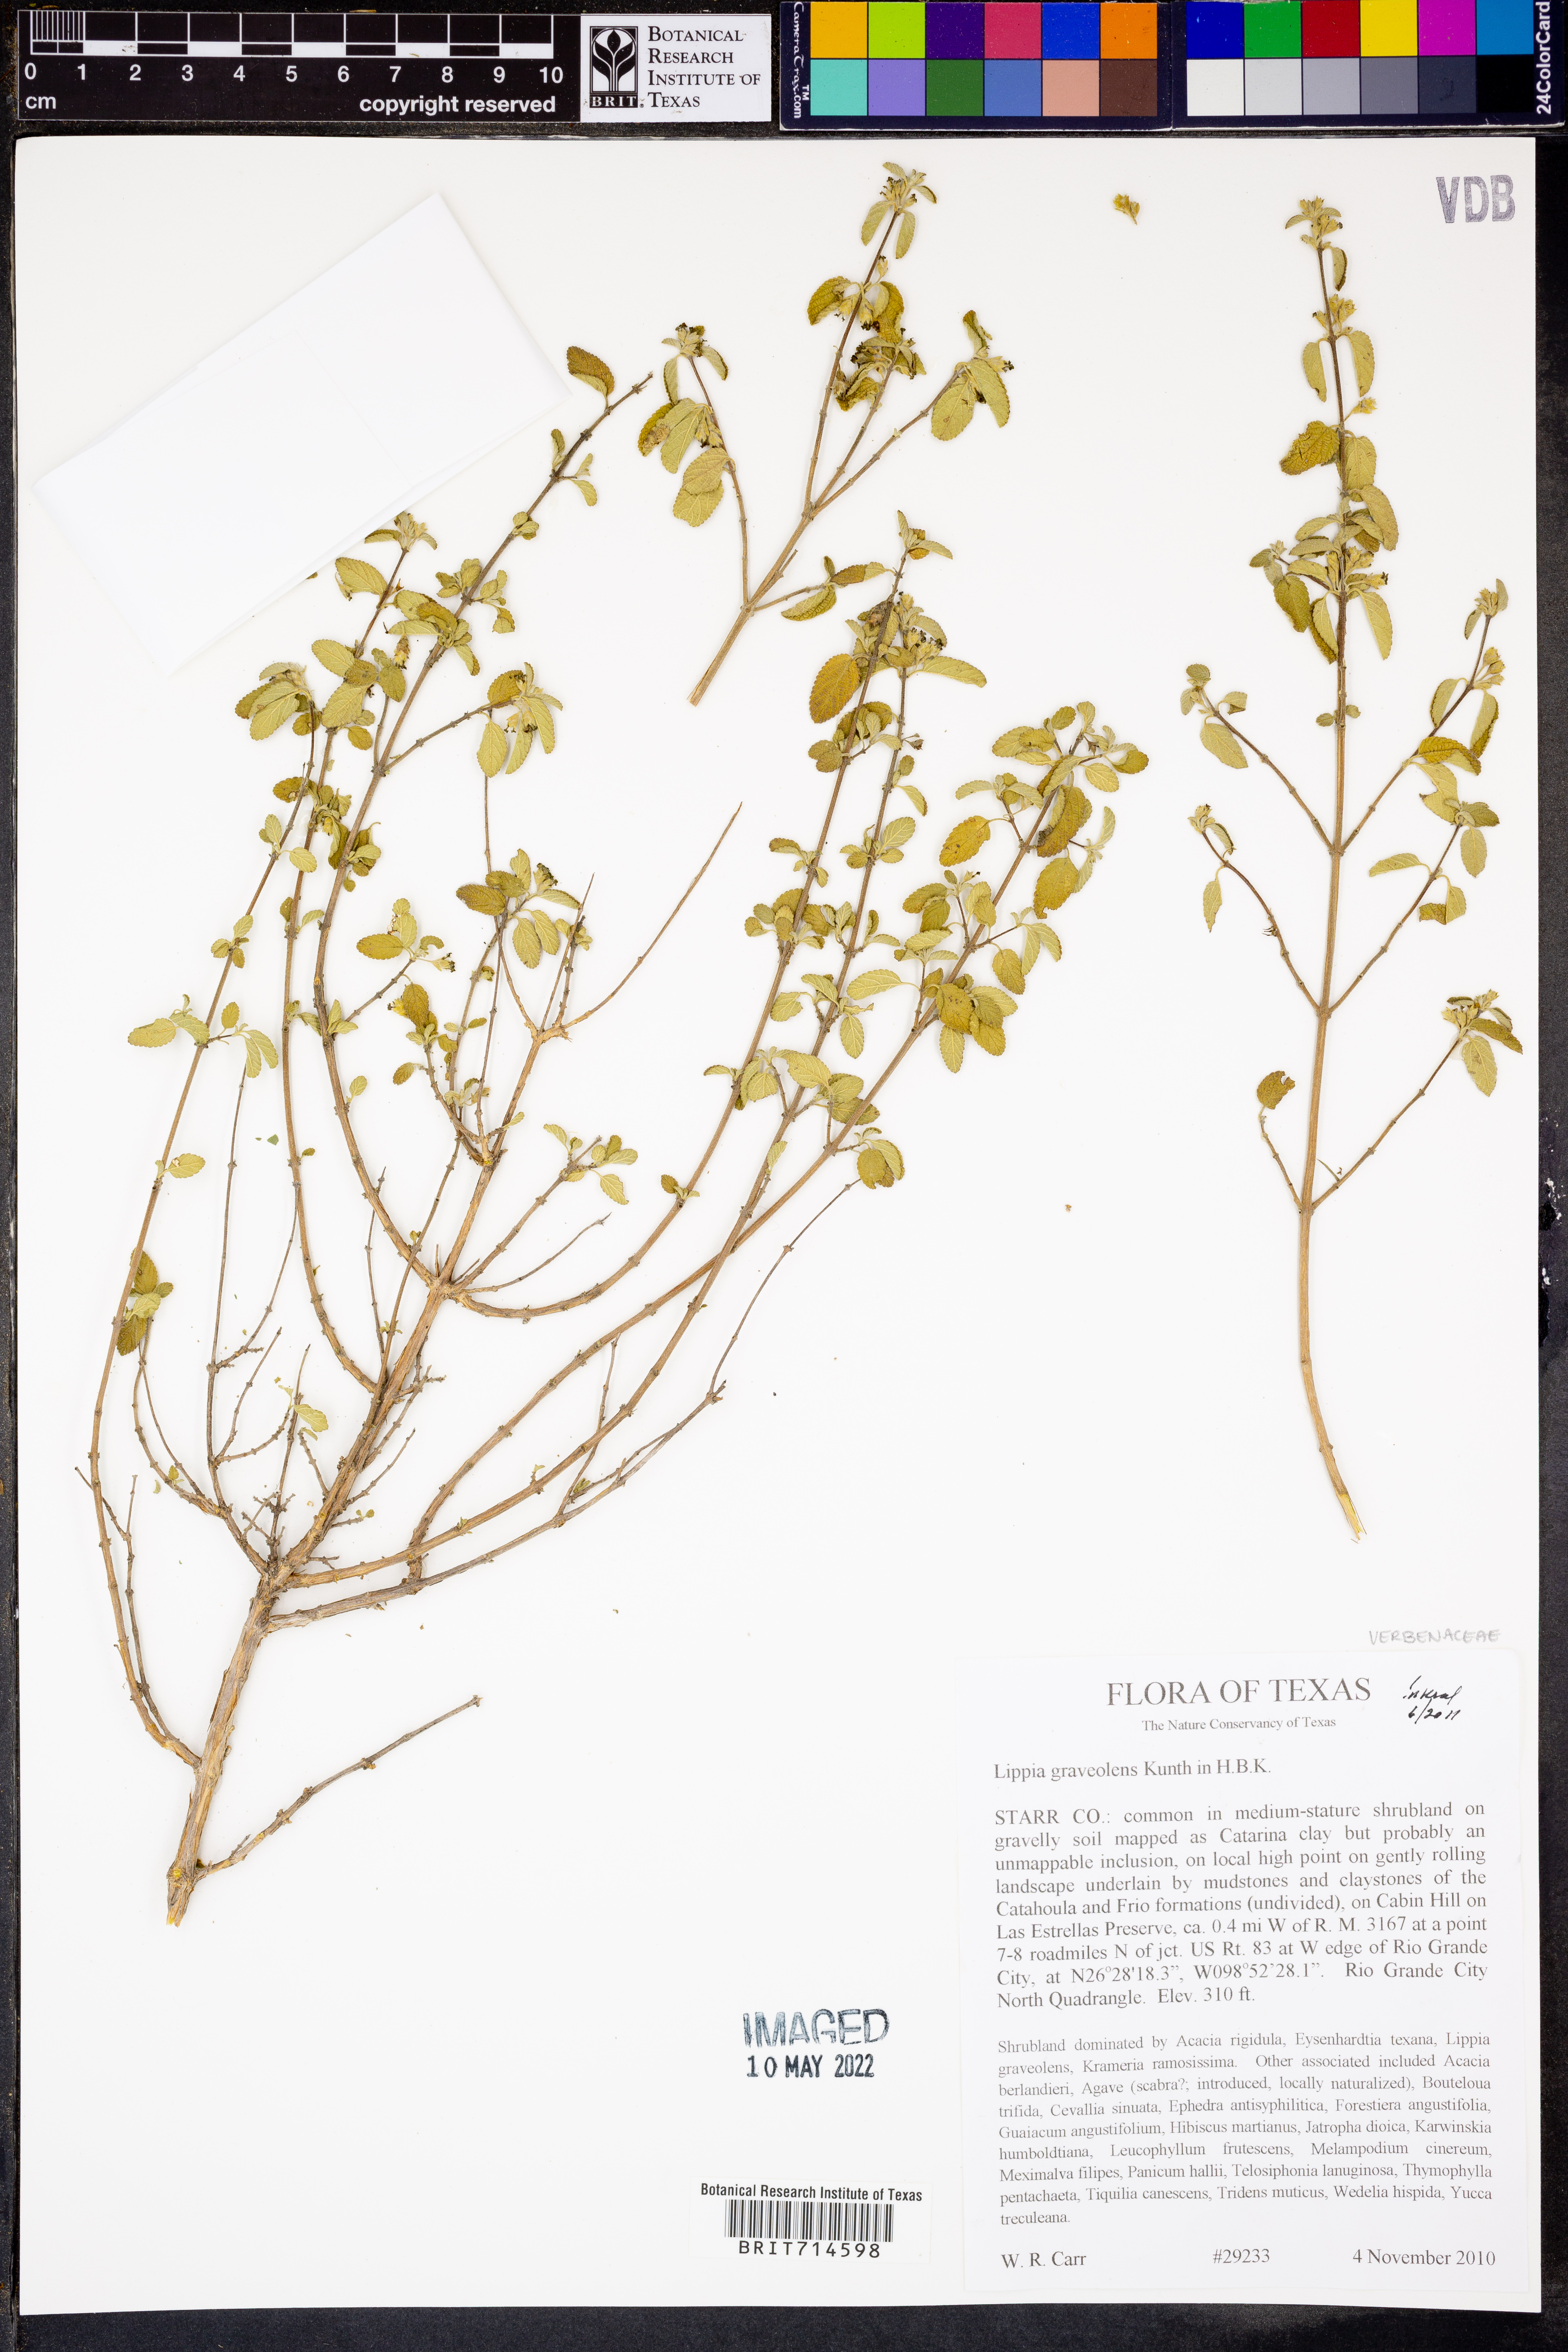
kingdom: Plantae
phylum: Tracheophyta
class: Magnoliopsida
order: Lamiales
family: Verbenaceae
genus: Lippia
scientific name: Lippia origanoides
